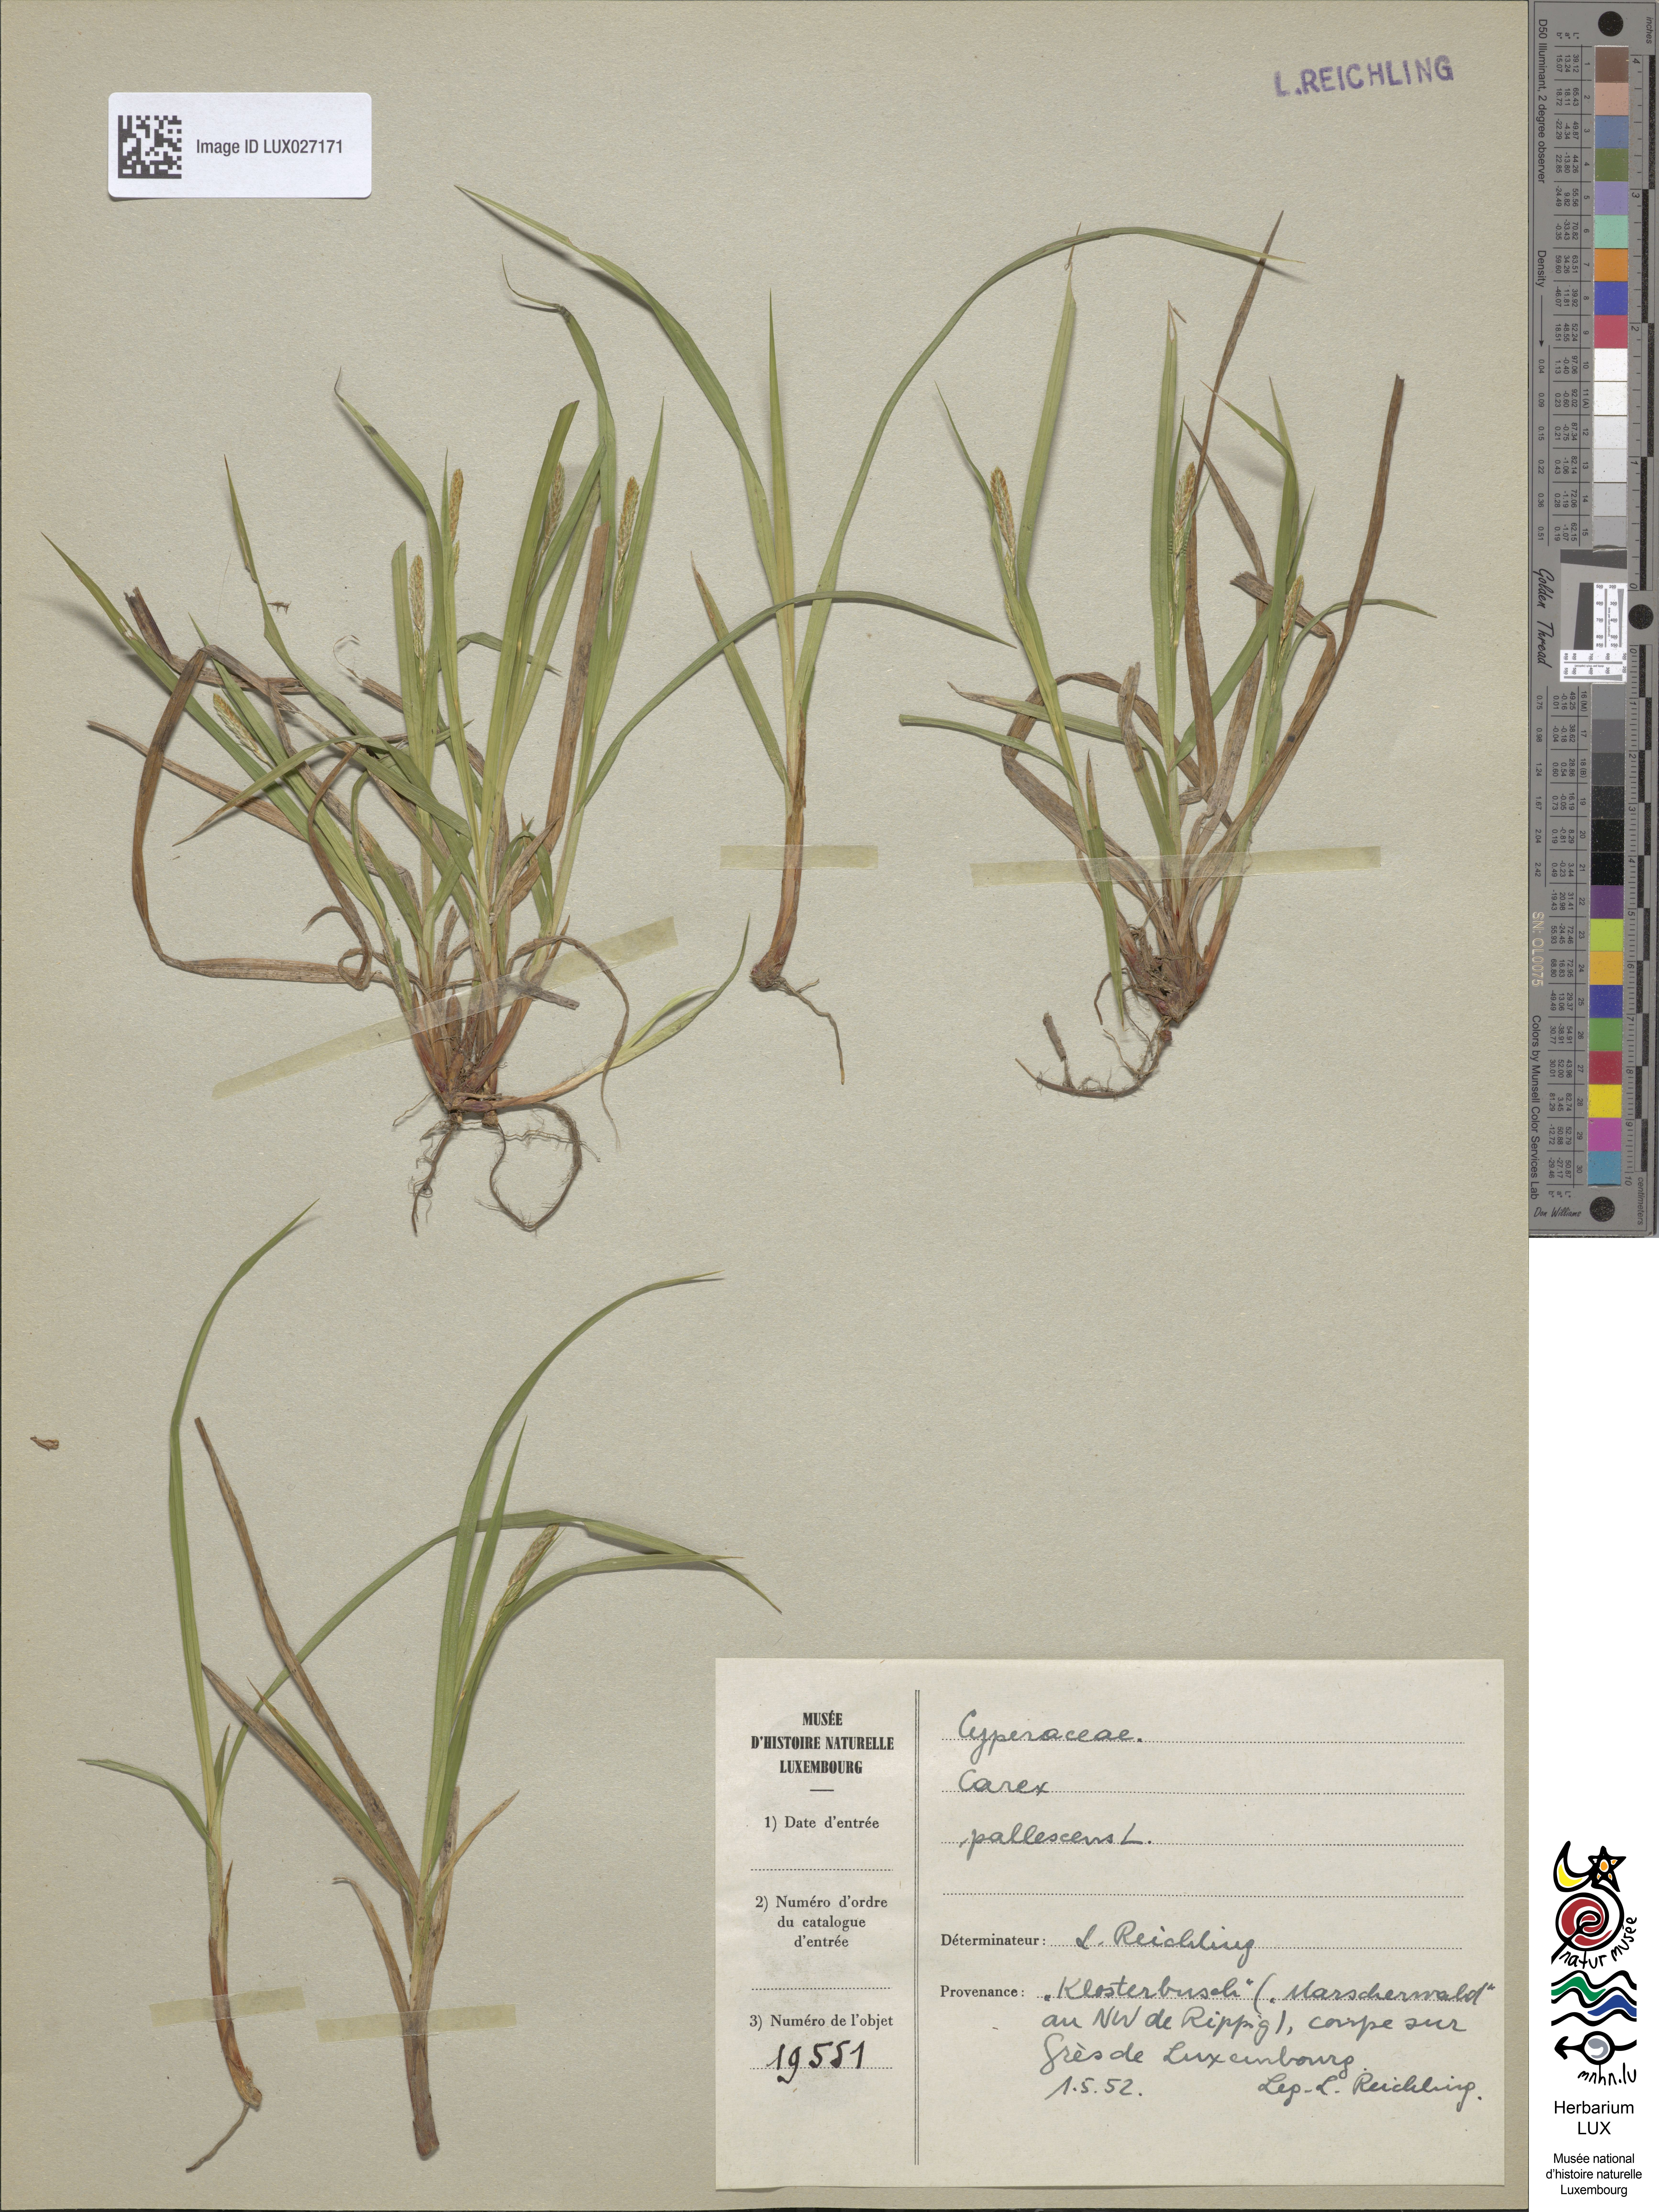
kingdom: Plantae
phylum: Tracheophyta
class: Liliopsida
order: Poales
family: Cyperaceae
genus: Carex
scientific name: Carex pallescens
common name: Pale sedge
